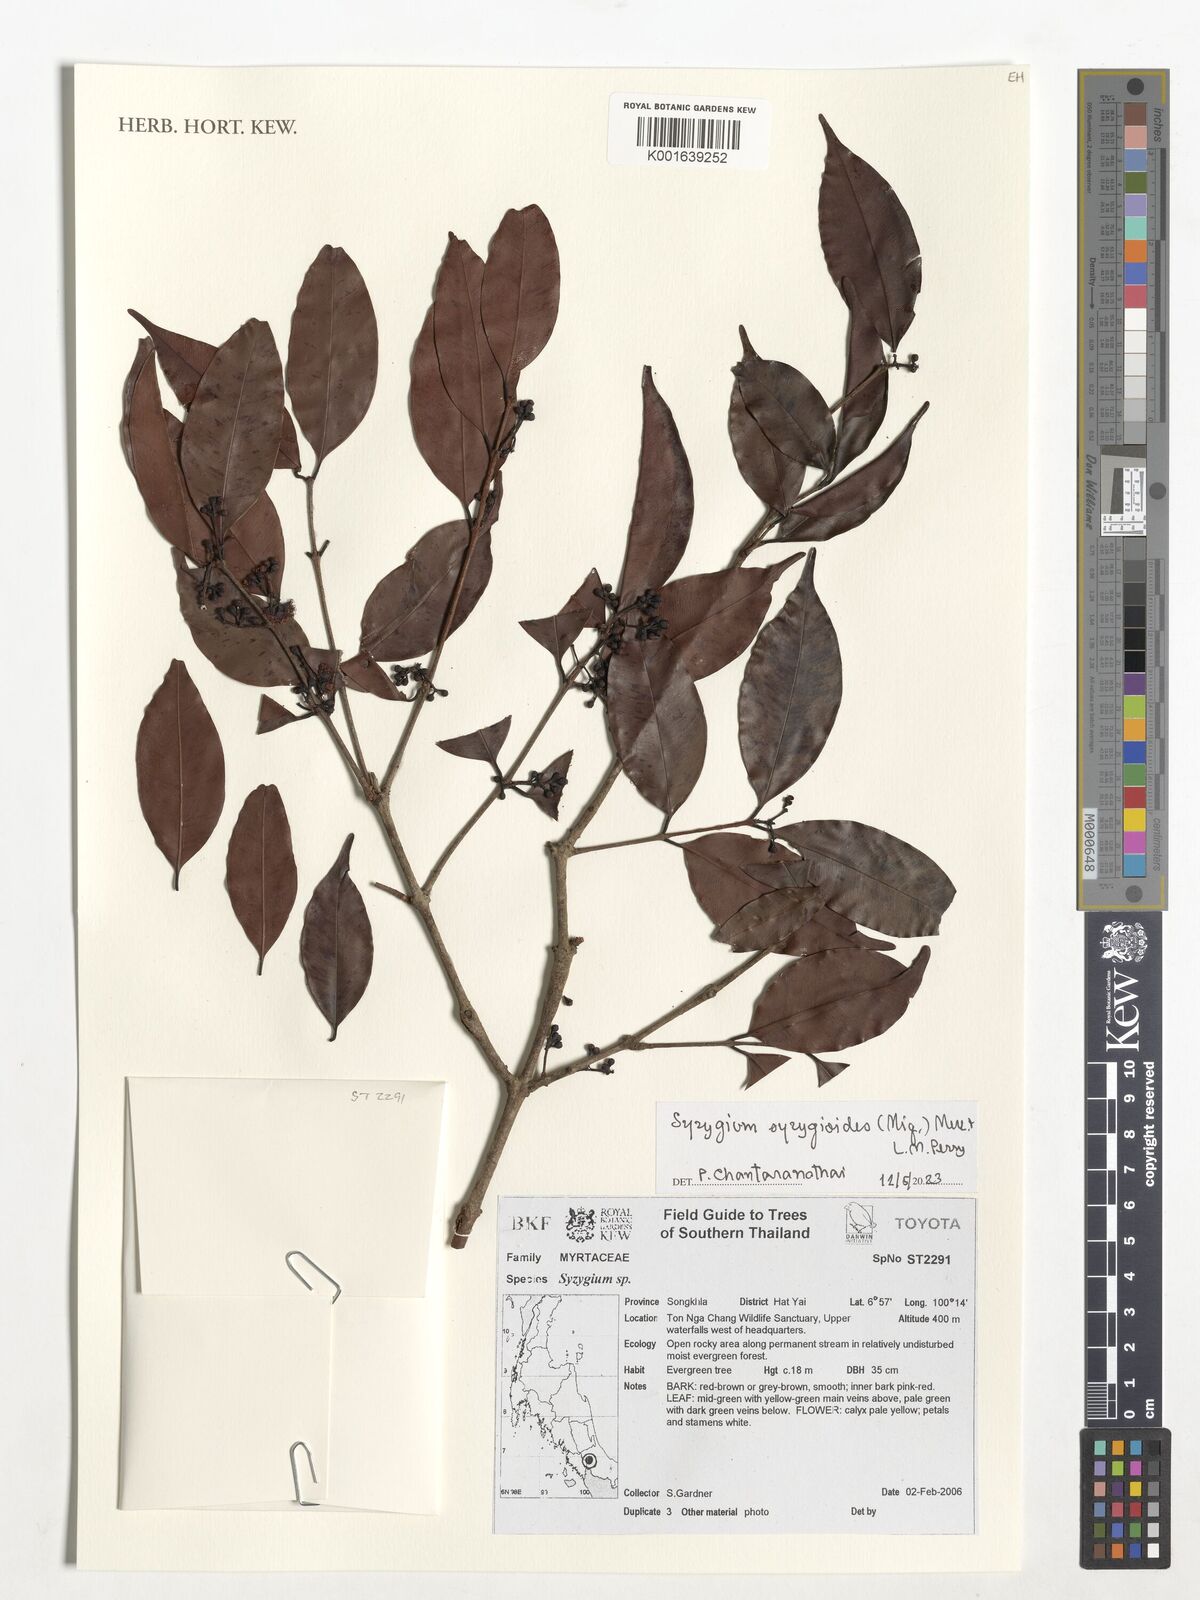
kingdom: Plantae
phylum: Tracheophyta
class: Magnoliopsida
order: Myrtales
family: Myrtaceae
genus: Syzygium
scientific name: Syzygium syzygioides
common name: Myrtle
